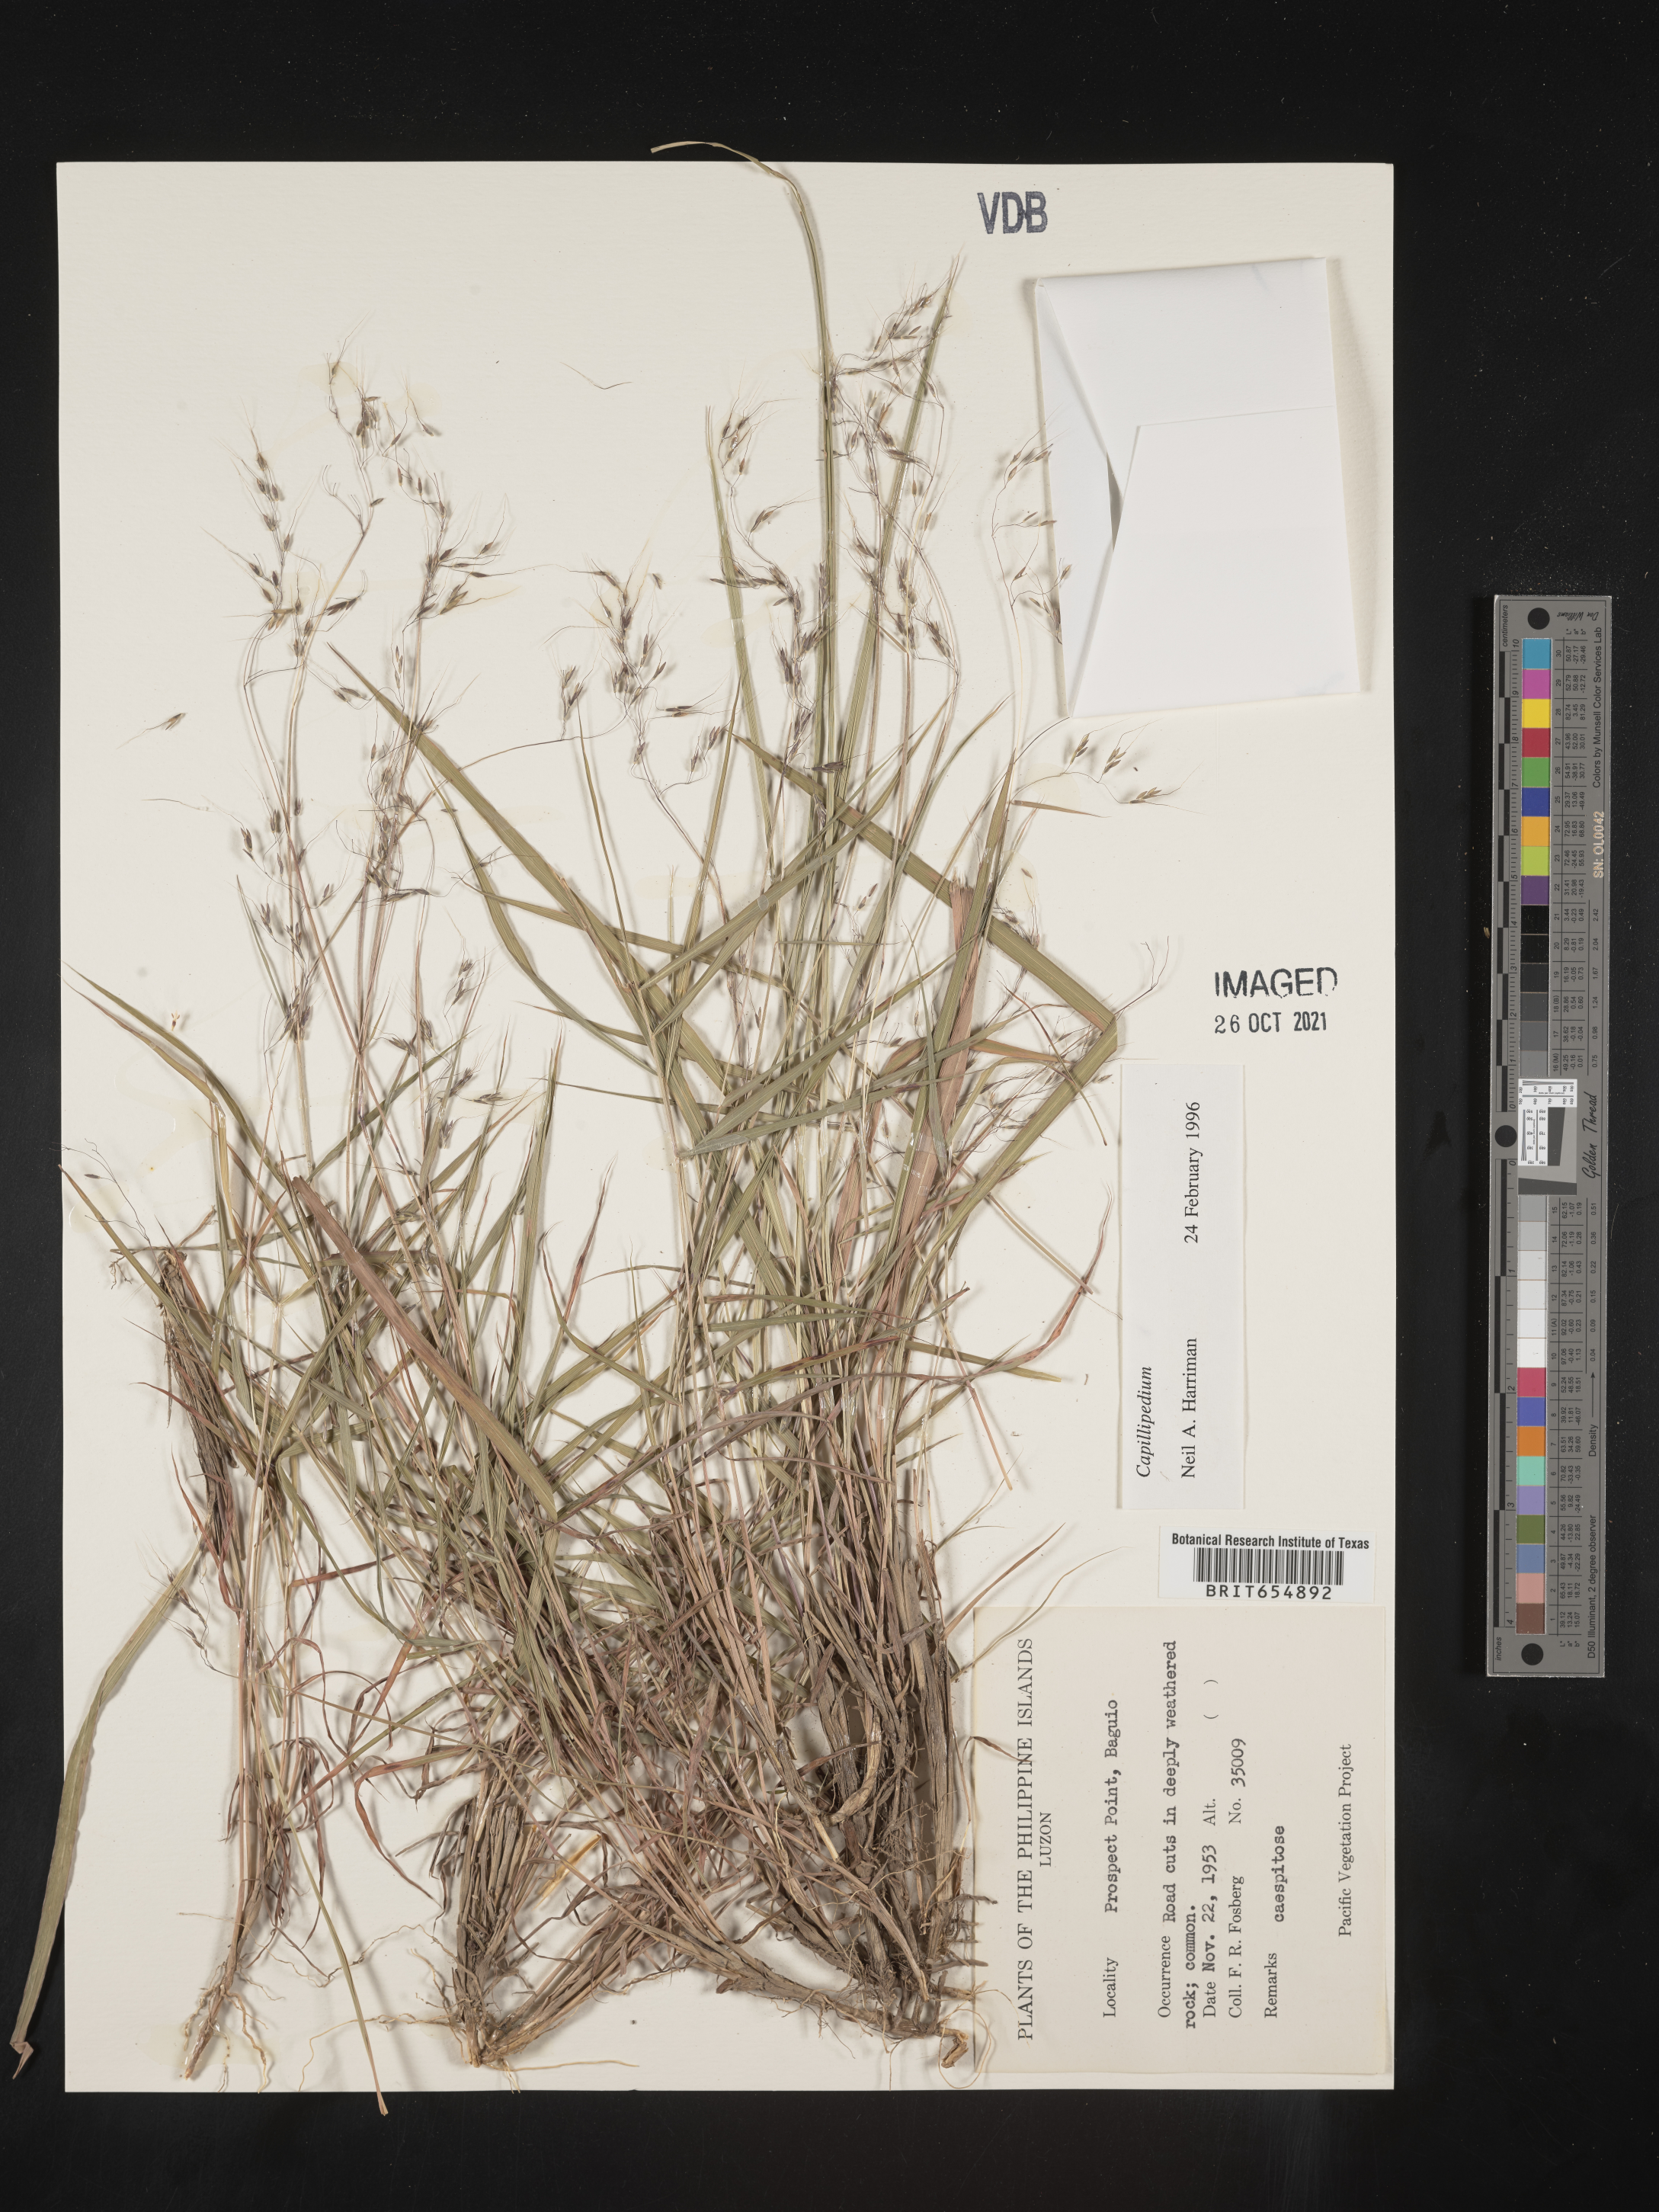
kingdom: Plantae
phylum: Tracheophyta
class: Liliopsida
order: Poales
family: Poaceae
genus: Capillipedium
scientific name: Capillipedium
